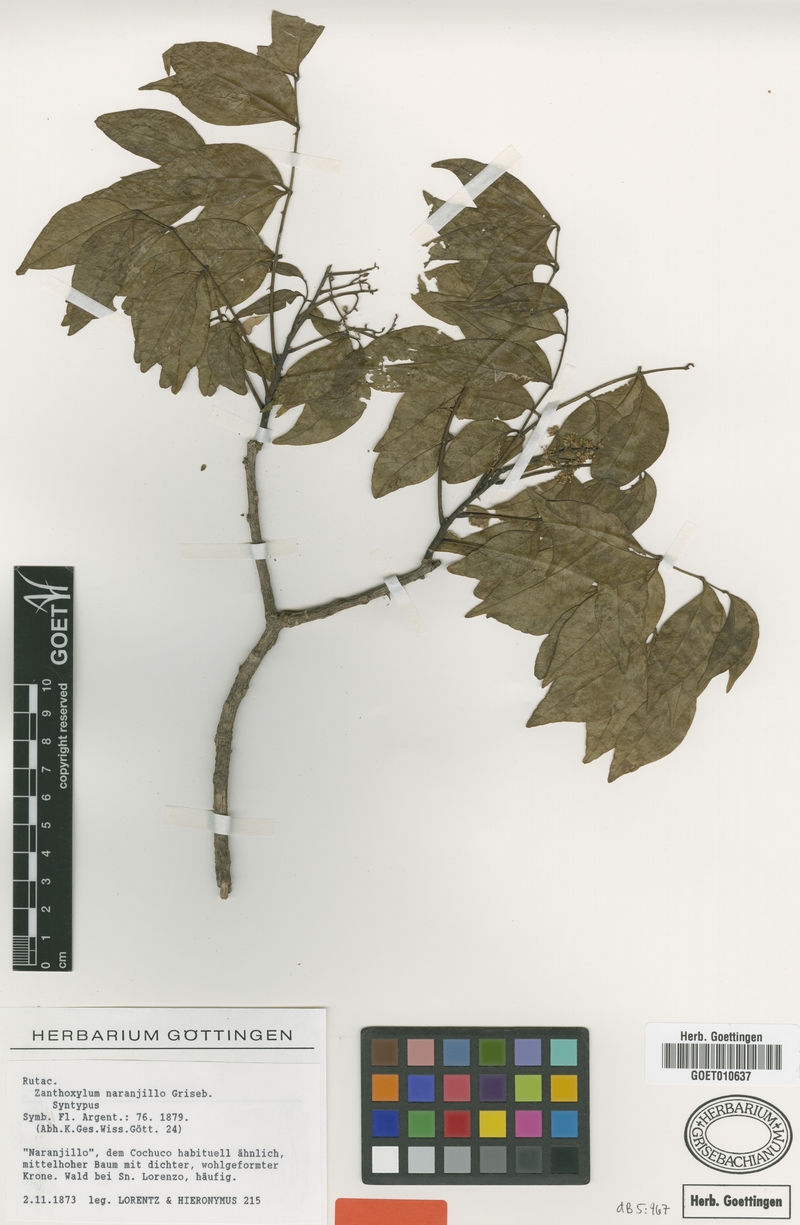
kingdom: Plantae
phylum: Tracheophyta
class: Magnoliopsida
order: Sapindales
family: Rutaceae
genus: Zanthoxylum
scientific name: Zanthoxylum petiolare
